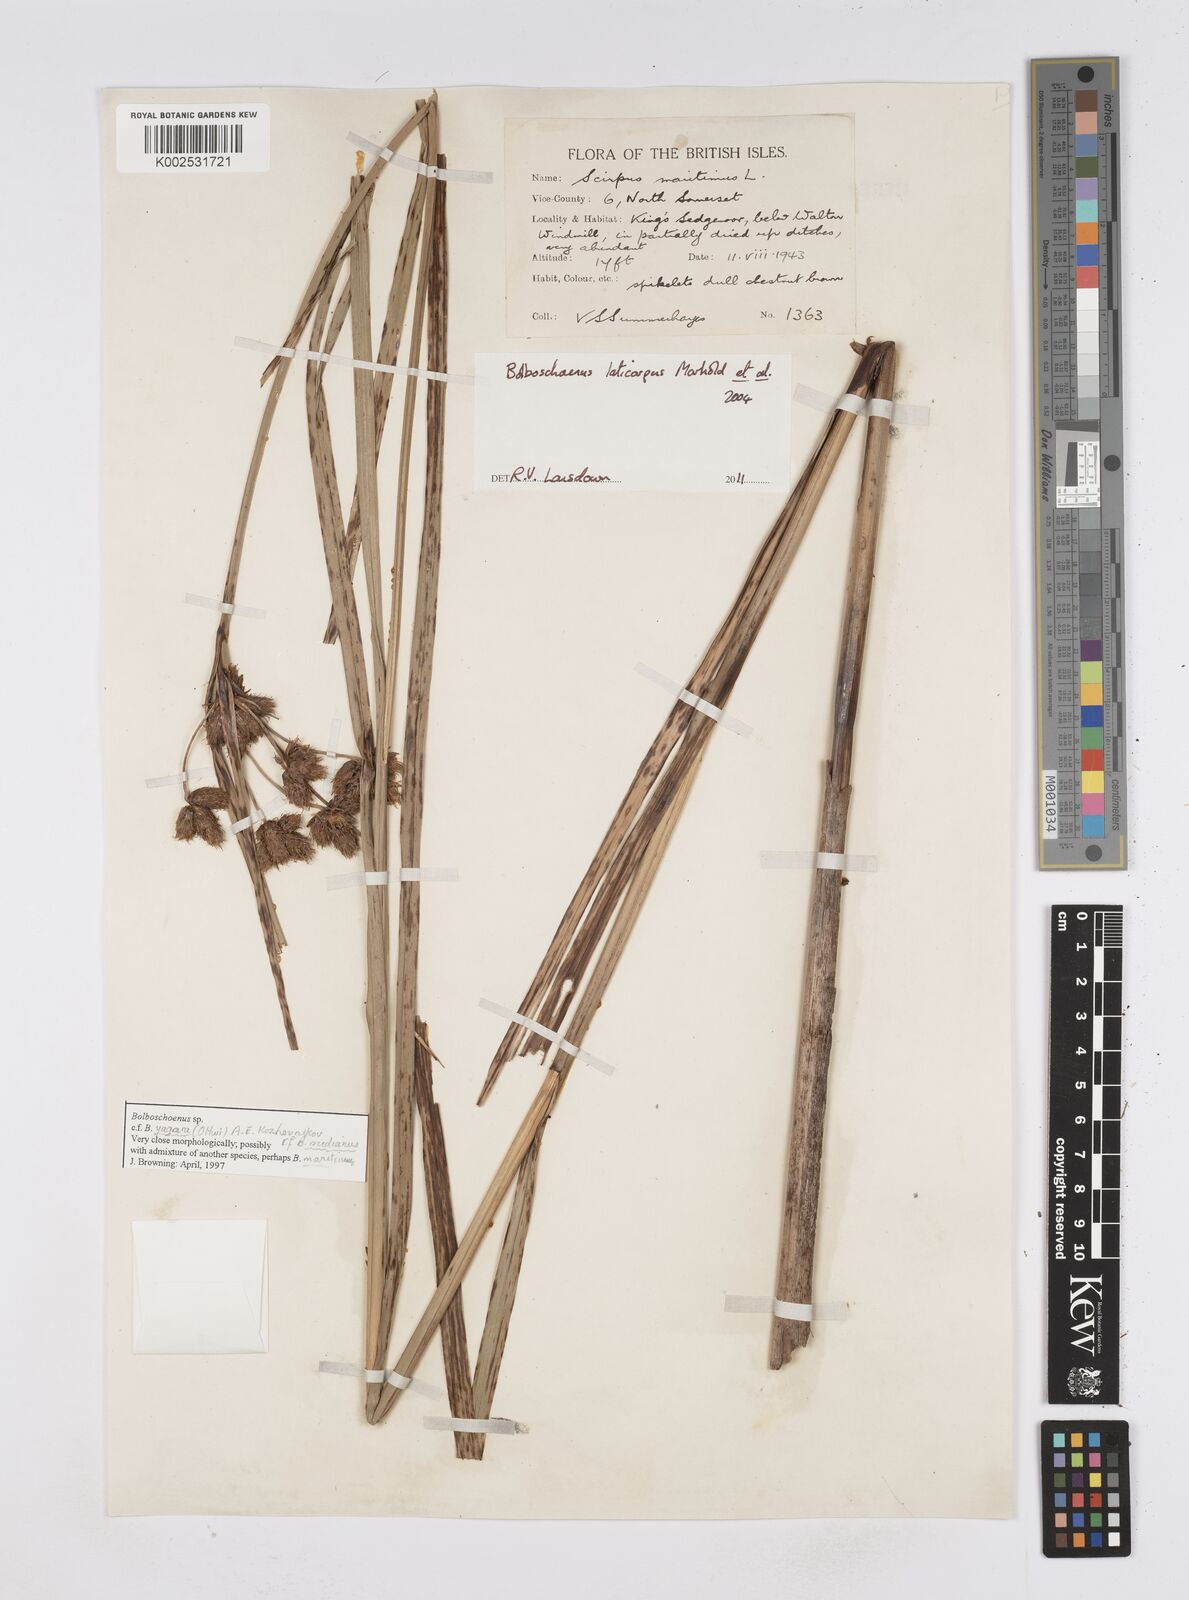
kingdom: Plantae
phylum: Tracheophyta
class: Liliopsida
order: Poales
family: Cyperaceae
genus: Bolboschoenus
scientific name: Bolboschoenus laticarpus
